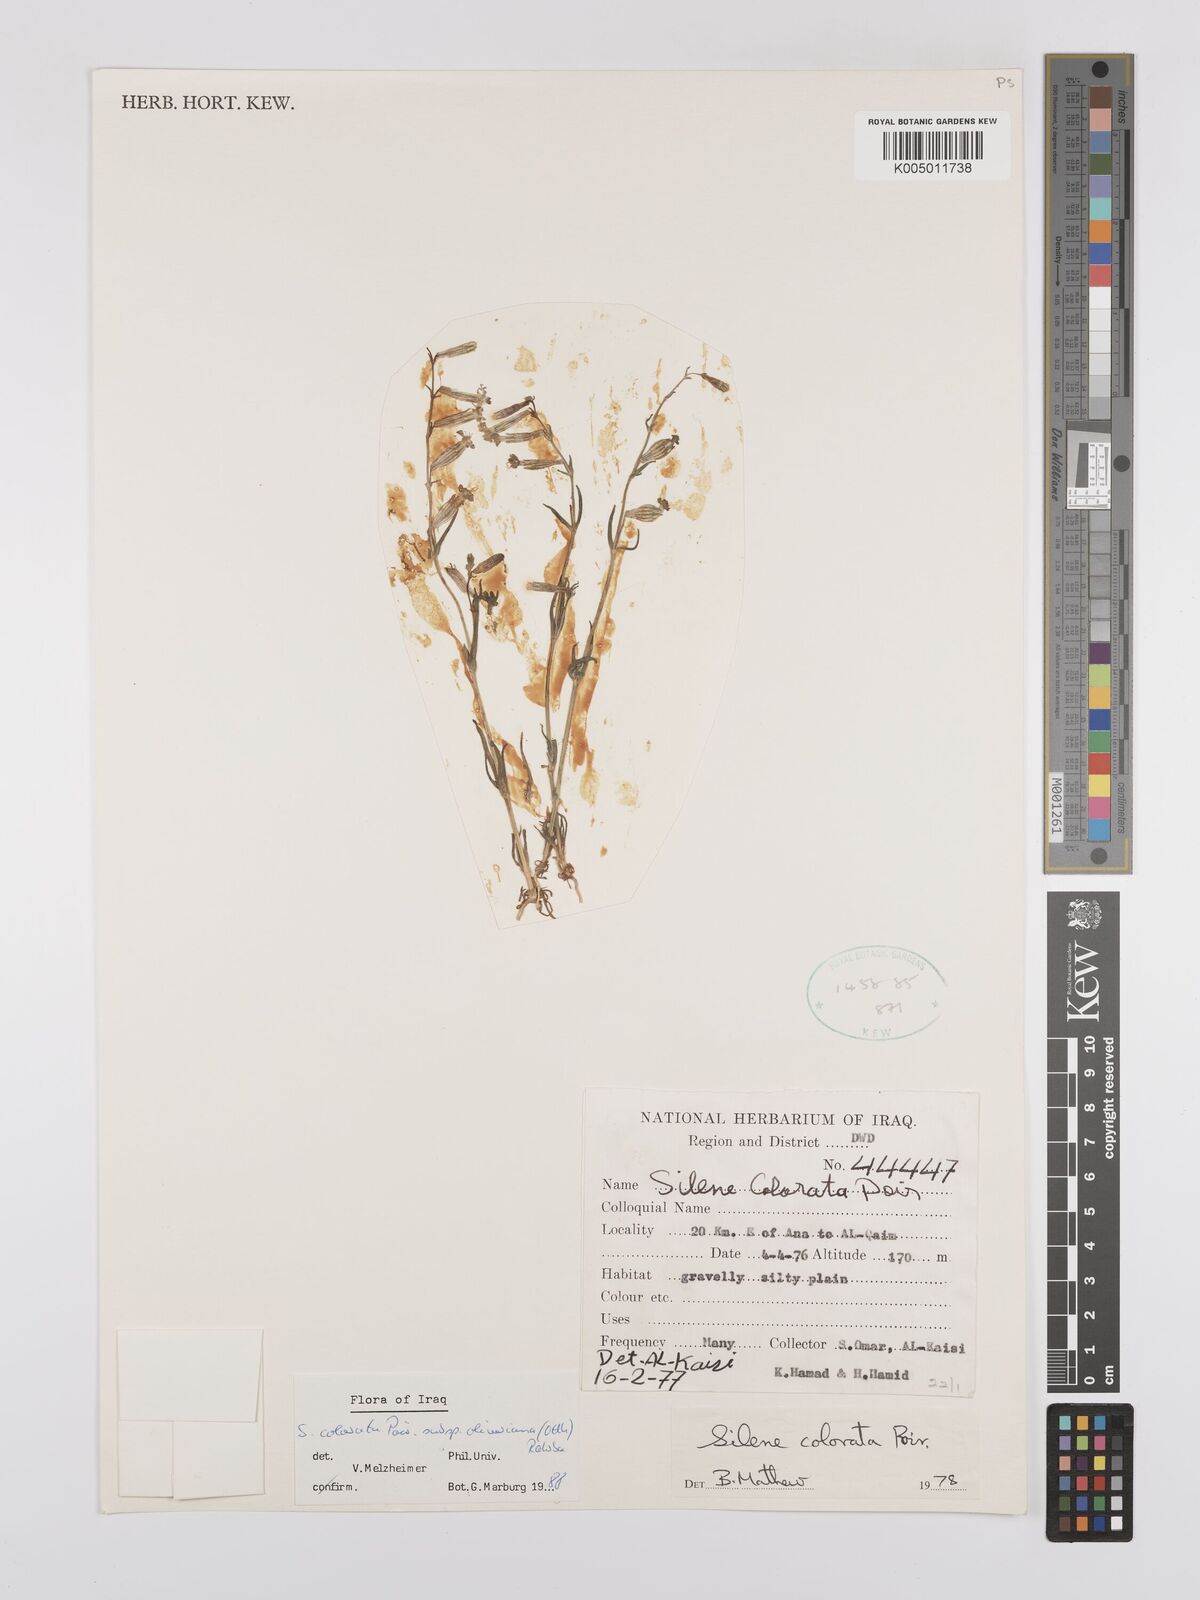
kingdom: Plantae
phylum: Tracheophyta
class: Magnoliopsida
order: Caryophyllales
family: Caryophyllaceae
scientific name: Caryophyllaceae
